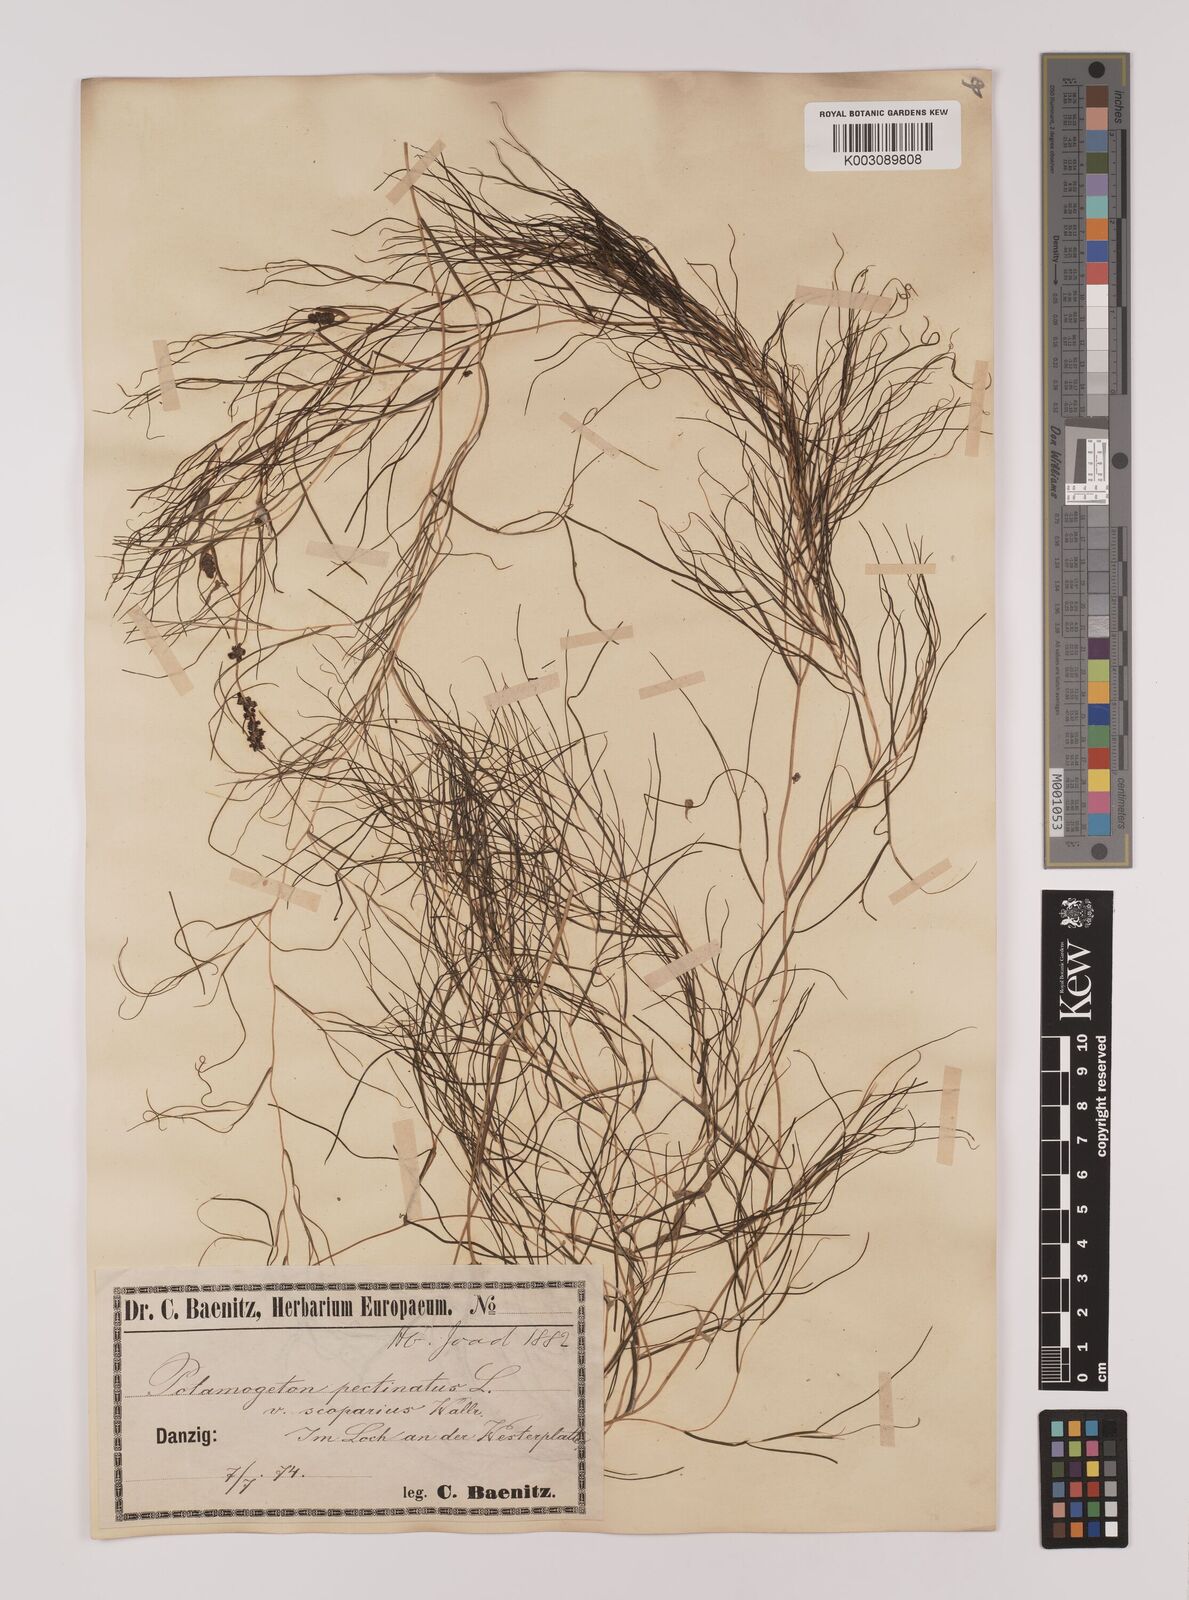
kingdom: Plantae
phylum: Tracheophyta
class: Liliopsida
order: Alismatales
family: Potamogetonaceae
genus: Stuckenia
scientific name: Stuckenia pectinata
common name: Sago pondweed
